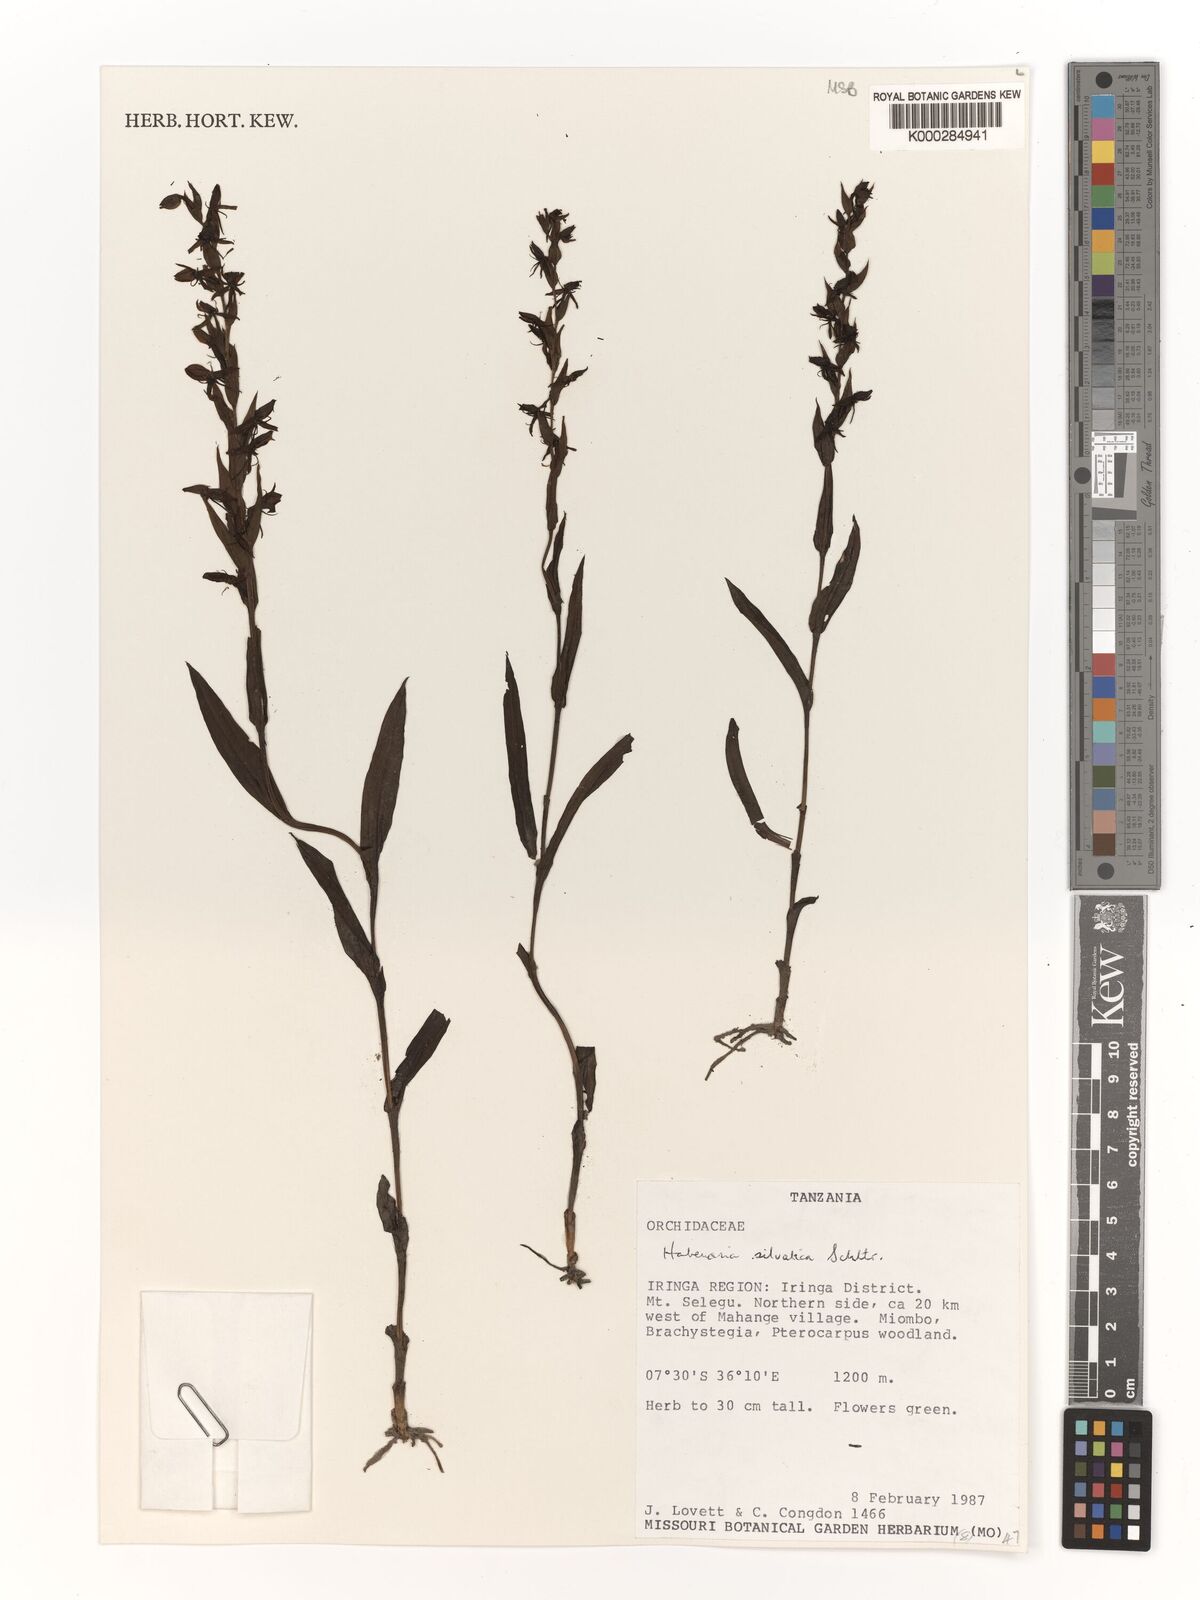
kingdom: Plantae
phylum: Tracheophyta
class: Liliopsida
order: Asparagales
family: Orchidaceae
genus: Habenaria
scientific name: Habenaria silvatica
